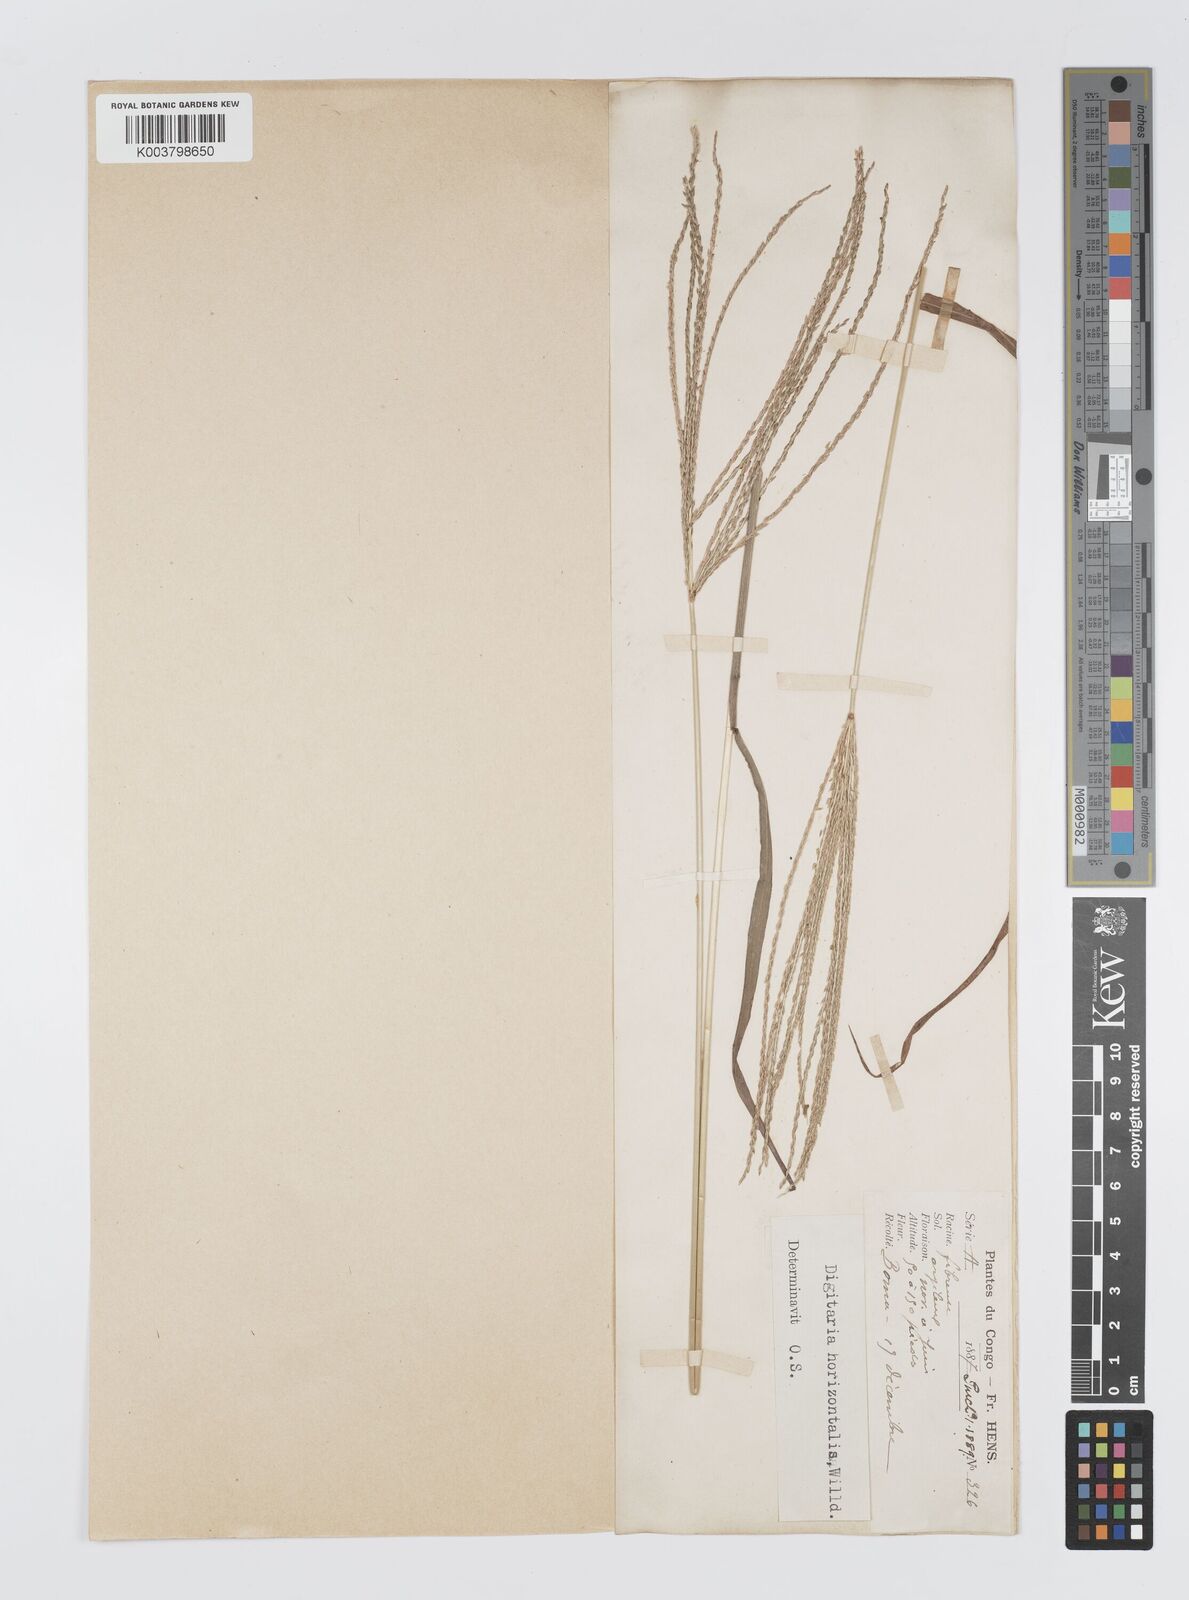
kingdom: Plantae
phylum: Tracheophyta
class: Liliopsida
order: Poales
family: Poaceae
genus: Digitaria
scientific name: Digitaria milanjiana
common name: Madagascar crabgrass
